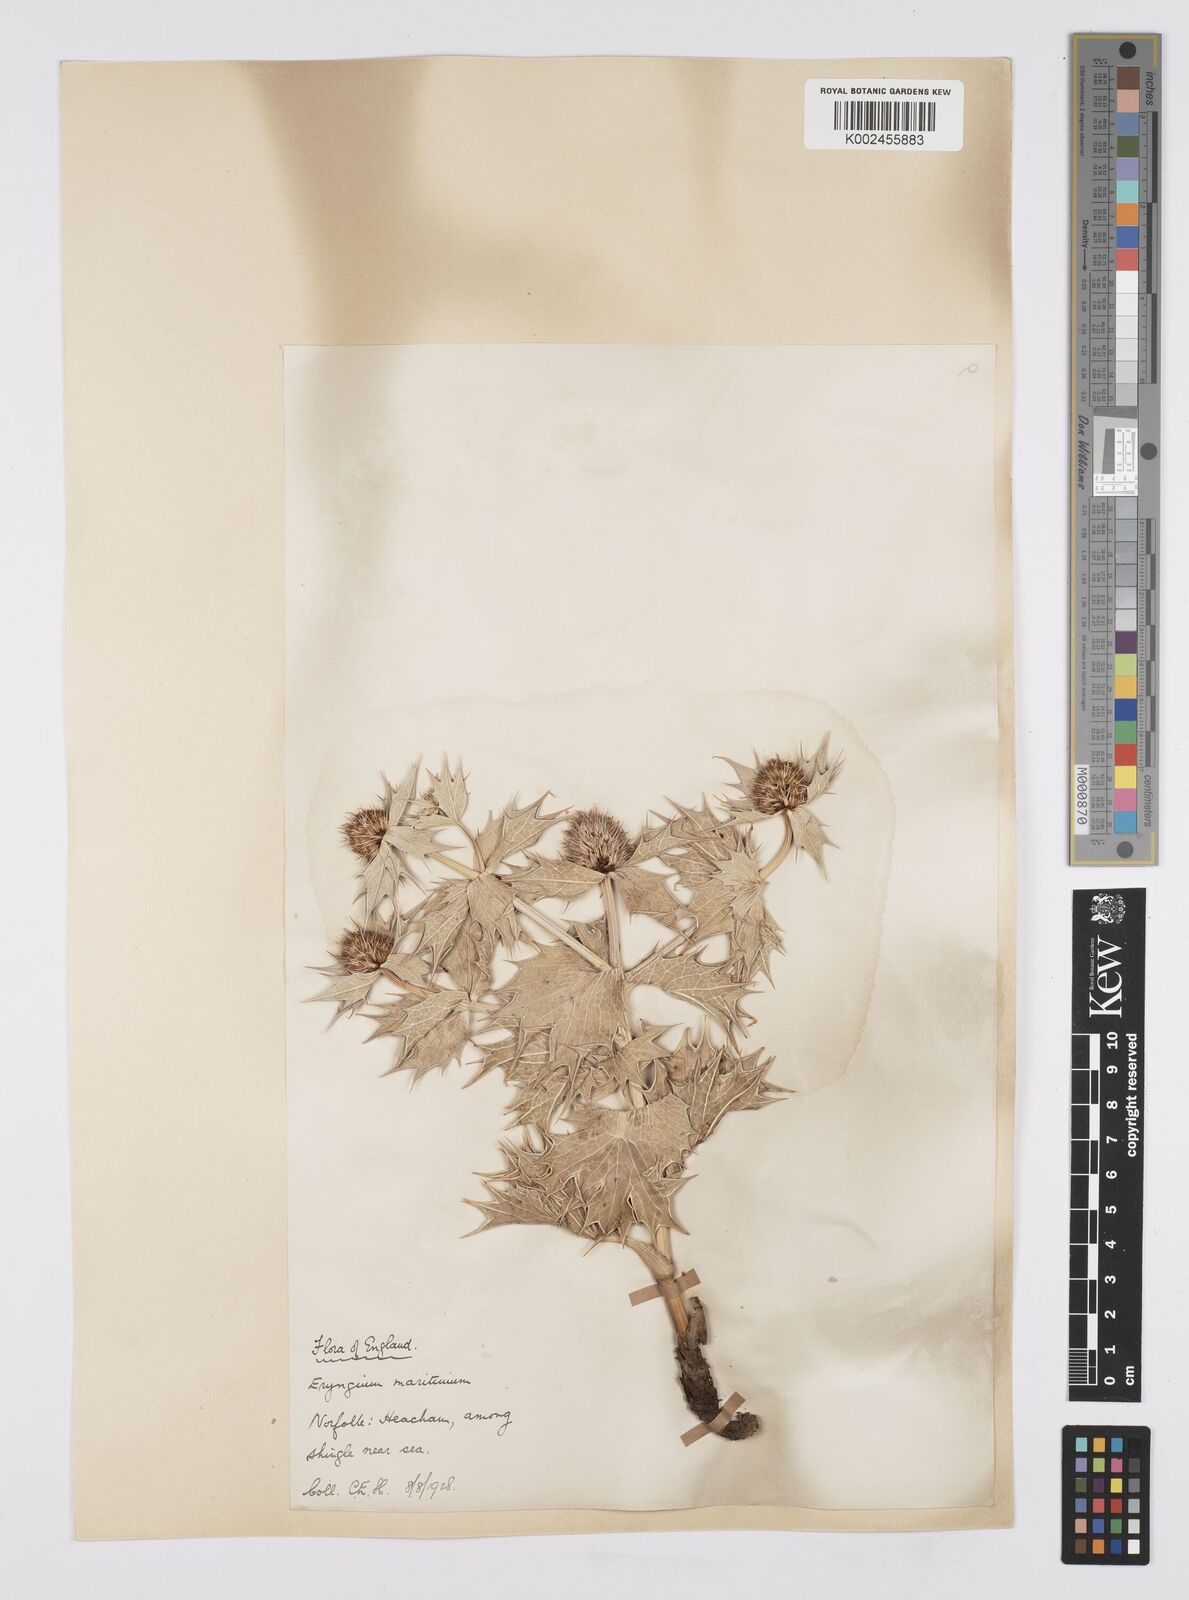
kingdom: Plantae
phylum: Tracheophyta
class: Magnoliopsida
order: Apiales
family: Apiaceae
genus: Eryngium
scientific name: Eryngium maritimum
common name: Sea-holly
